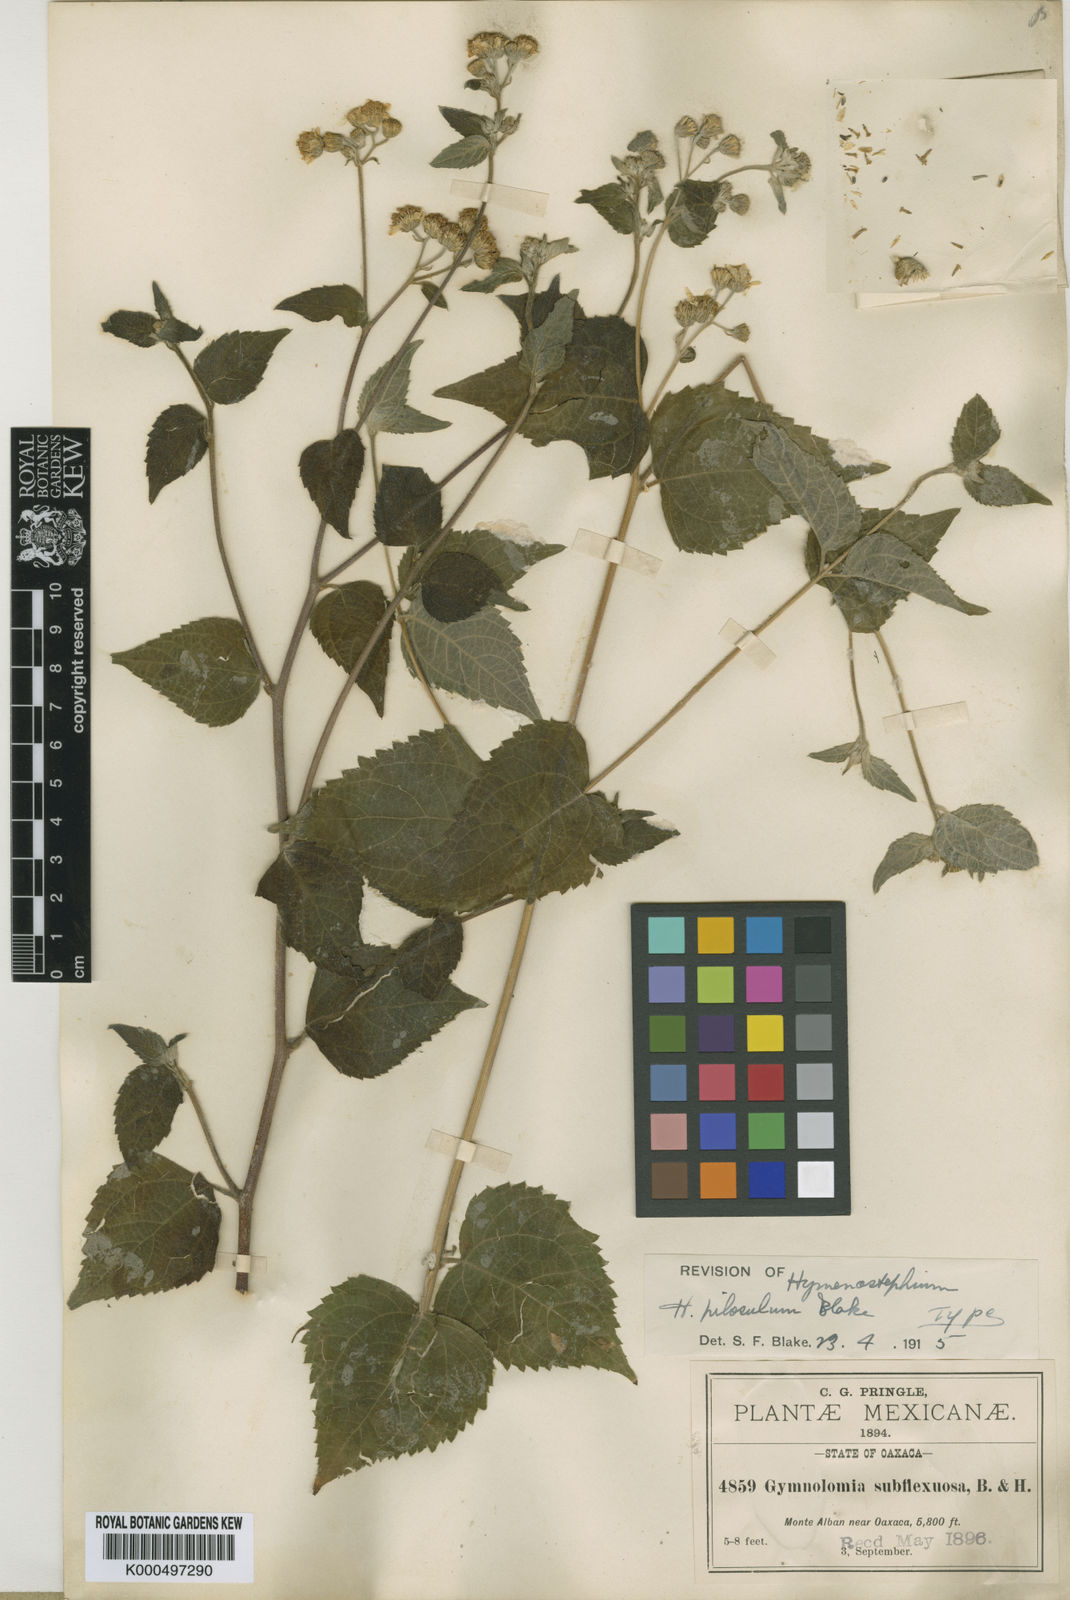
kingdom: Plantae
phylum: Tracheophyta
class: Magnoliopsida
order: Asterales
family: Asteraceae
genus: Hymenostephium
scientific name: Hymenostephium cordatum
